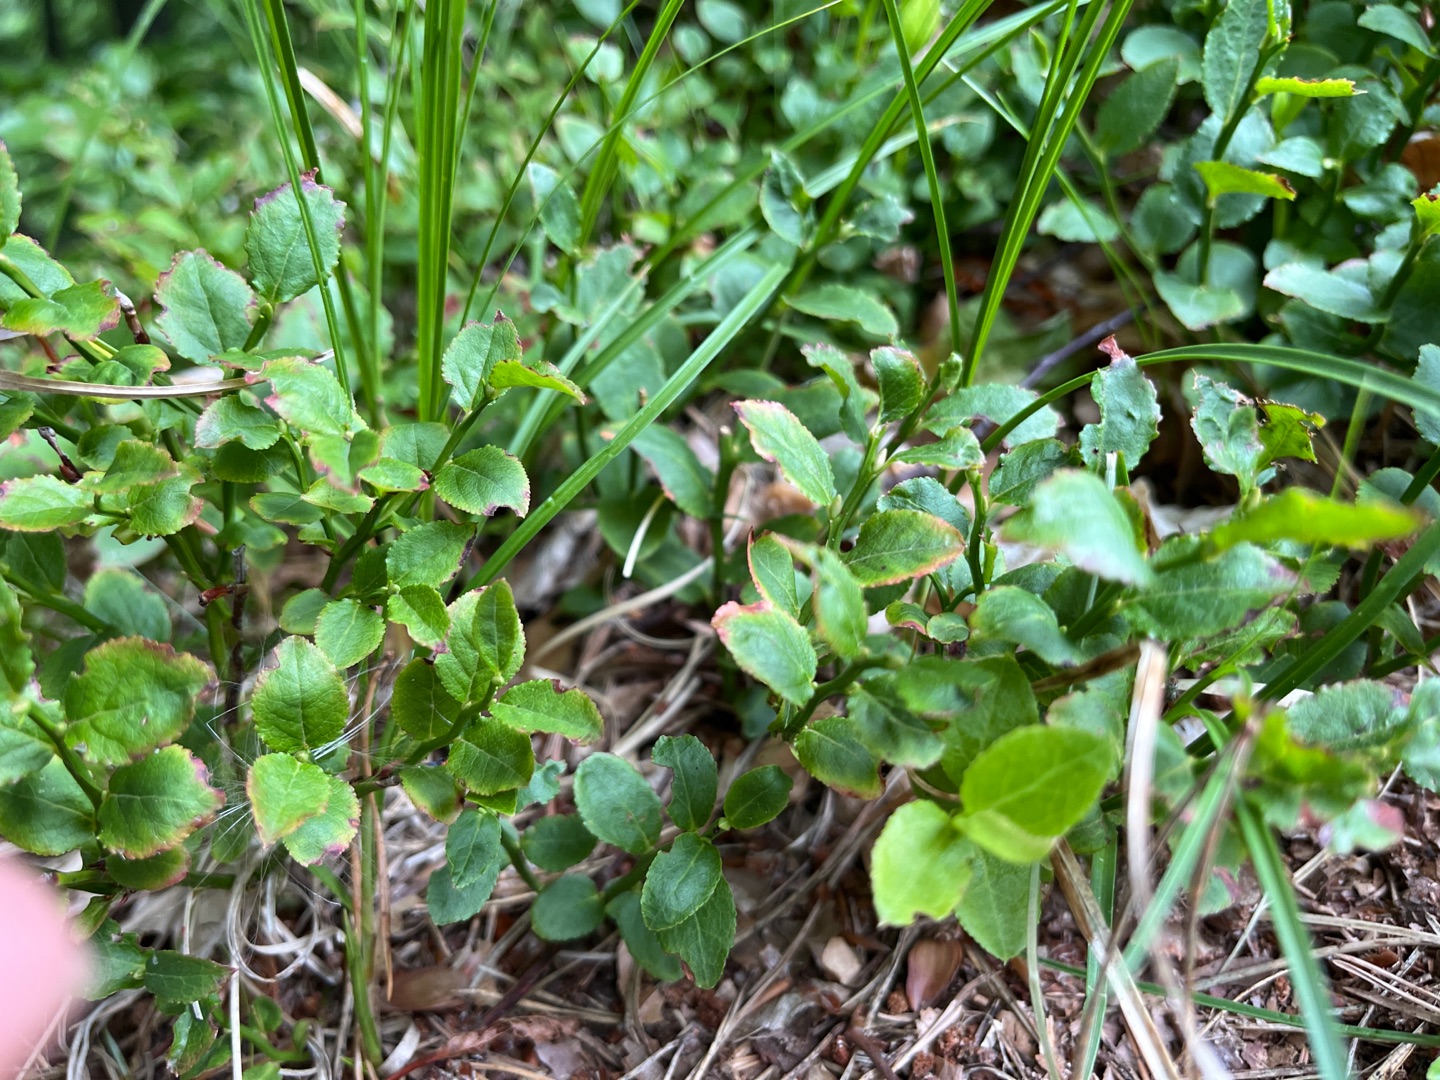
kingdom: Plantae
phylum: Tracheophyta
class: Magnoliopsida
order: Ericales
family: Ericaceae
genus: Vaccinium
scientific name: Vaccinium myrtillus
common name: Blåbær
